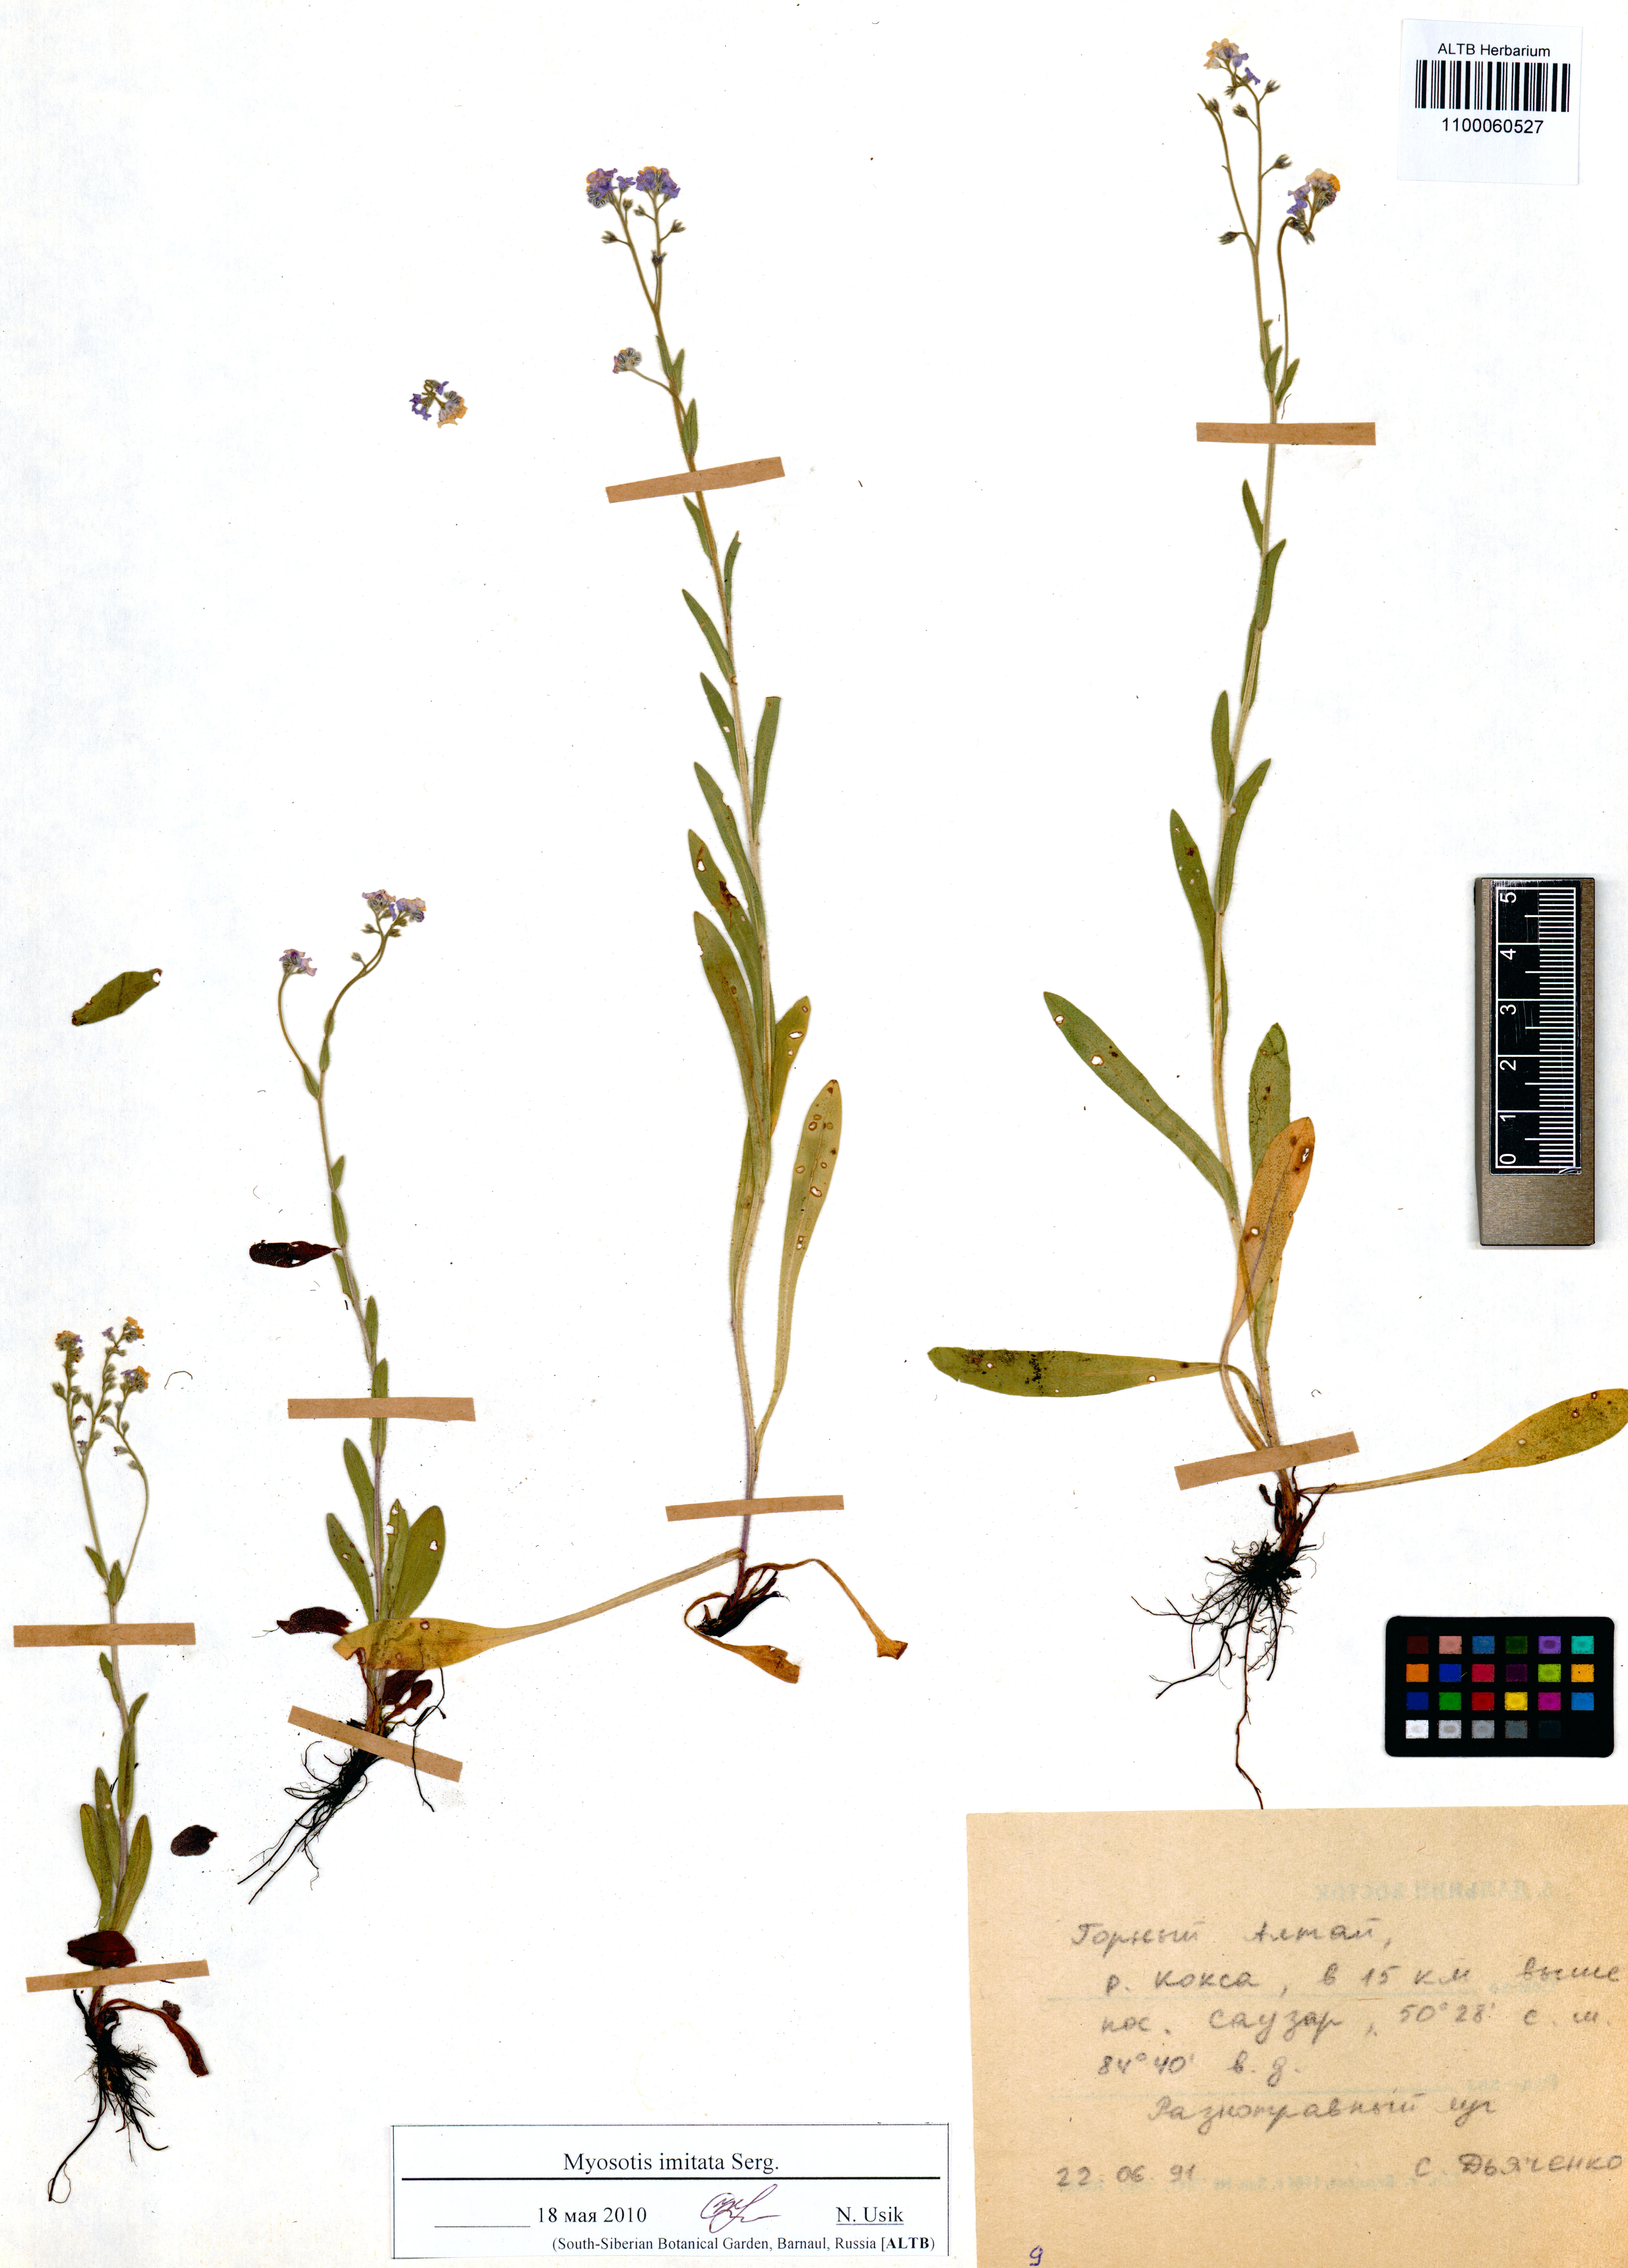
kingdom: Plantae
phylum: Tracheophyta
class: Magnoliopsida
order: Boraginales
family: Boraginaceae
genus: Myosotis
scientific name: Myosotis imitata
